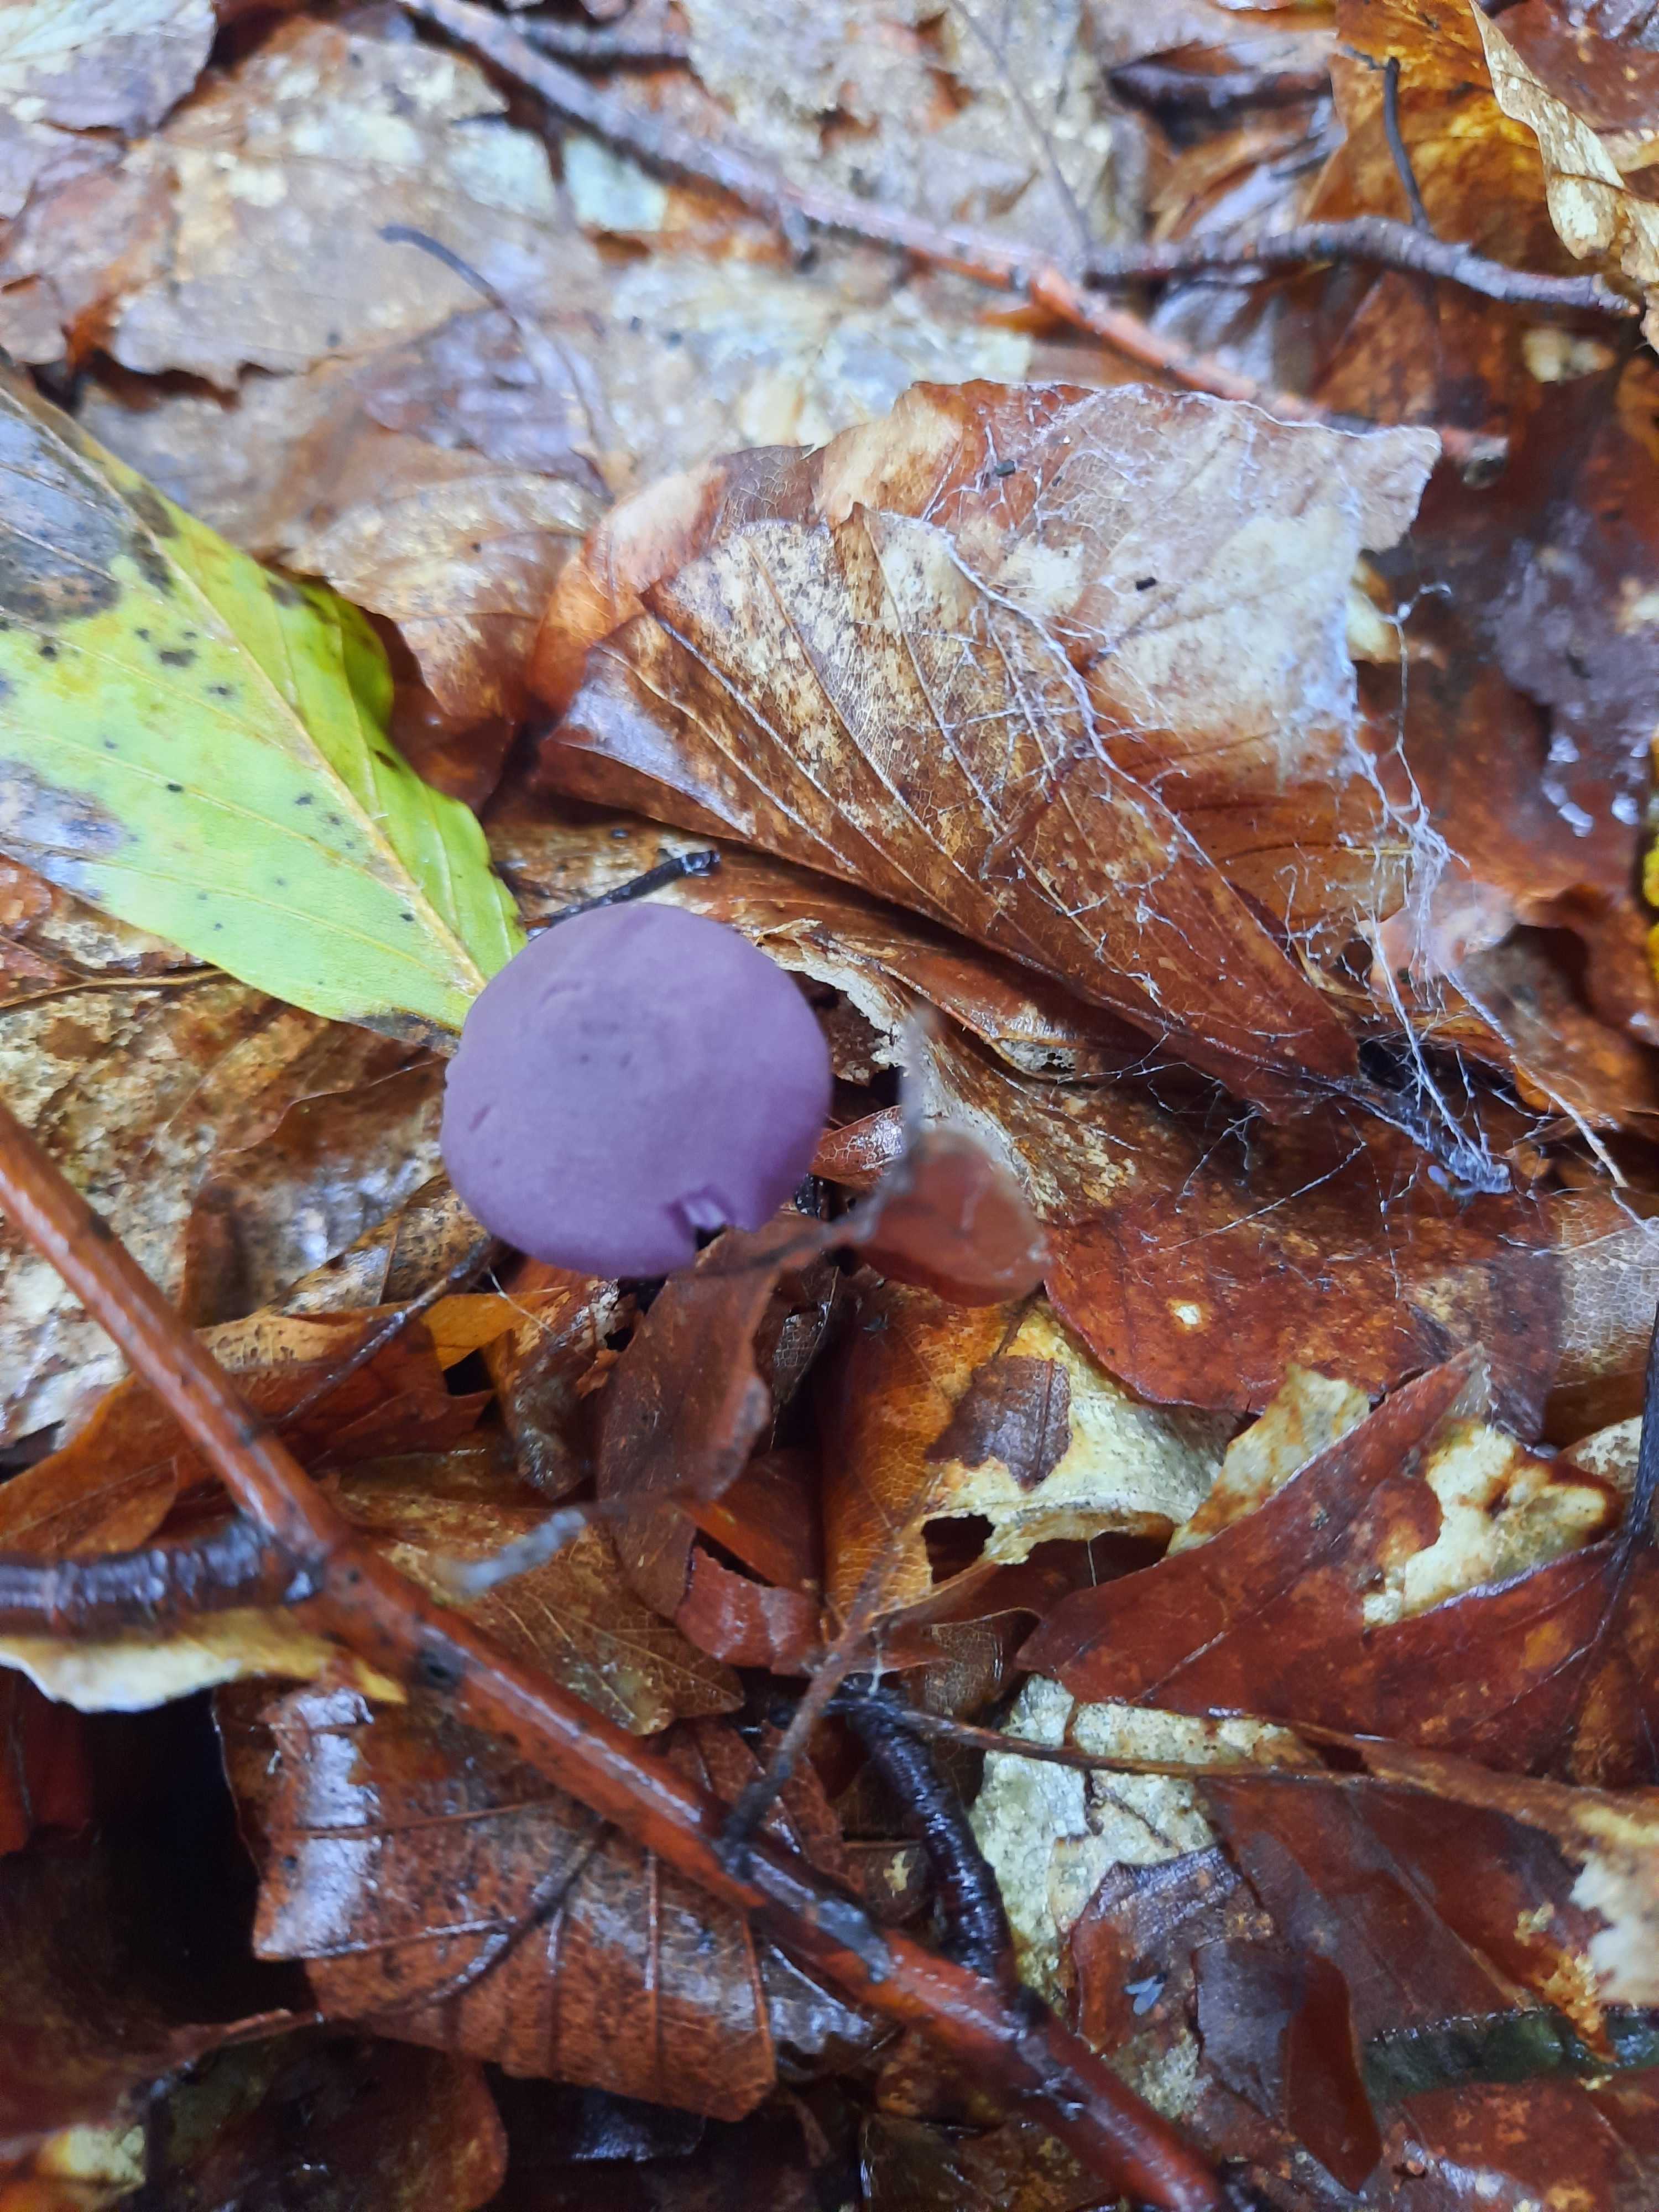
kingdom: Fungi
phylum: Basidiomycota
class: Agaricomycetes
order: Agaricales
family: Hydnangiaceae
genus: Laccaria
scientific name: Laccaria amethystina
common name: violet ametysthat
